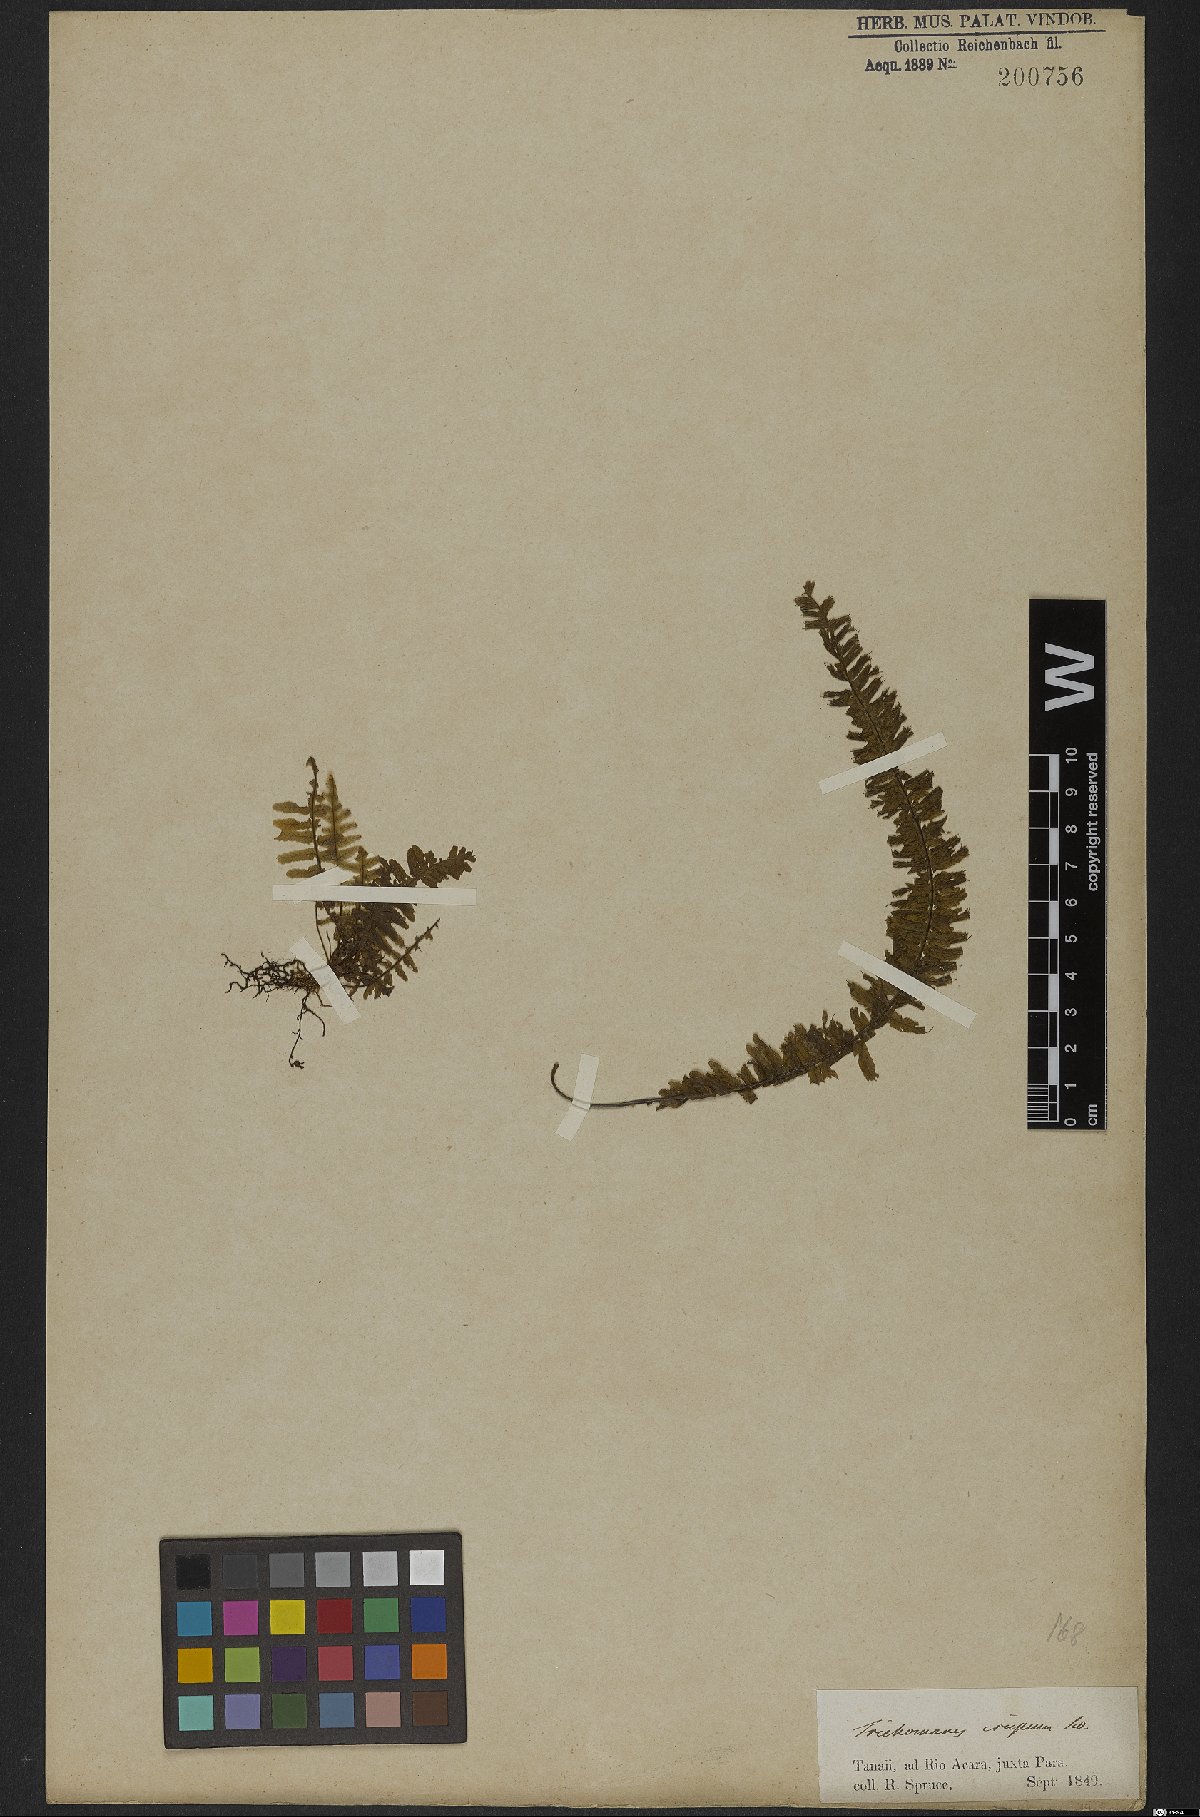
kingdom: Plantae
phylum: Tracheophyta
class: Polypodiopsida
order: Hymenophyllales
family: Hymenophyllaceae
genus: Trichomanes
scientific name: Trichomanes crispum
